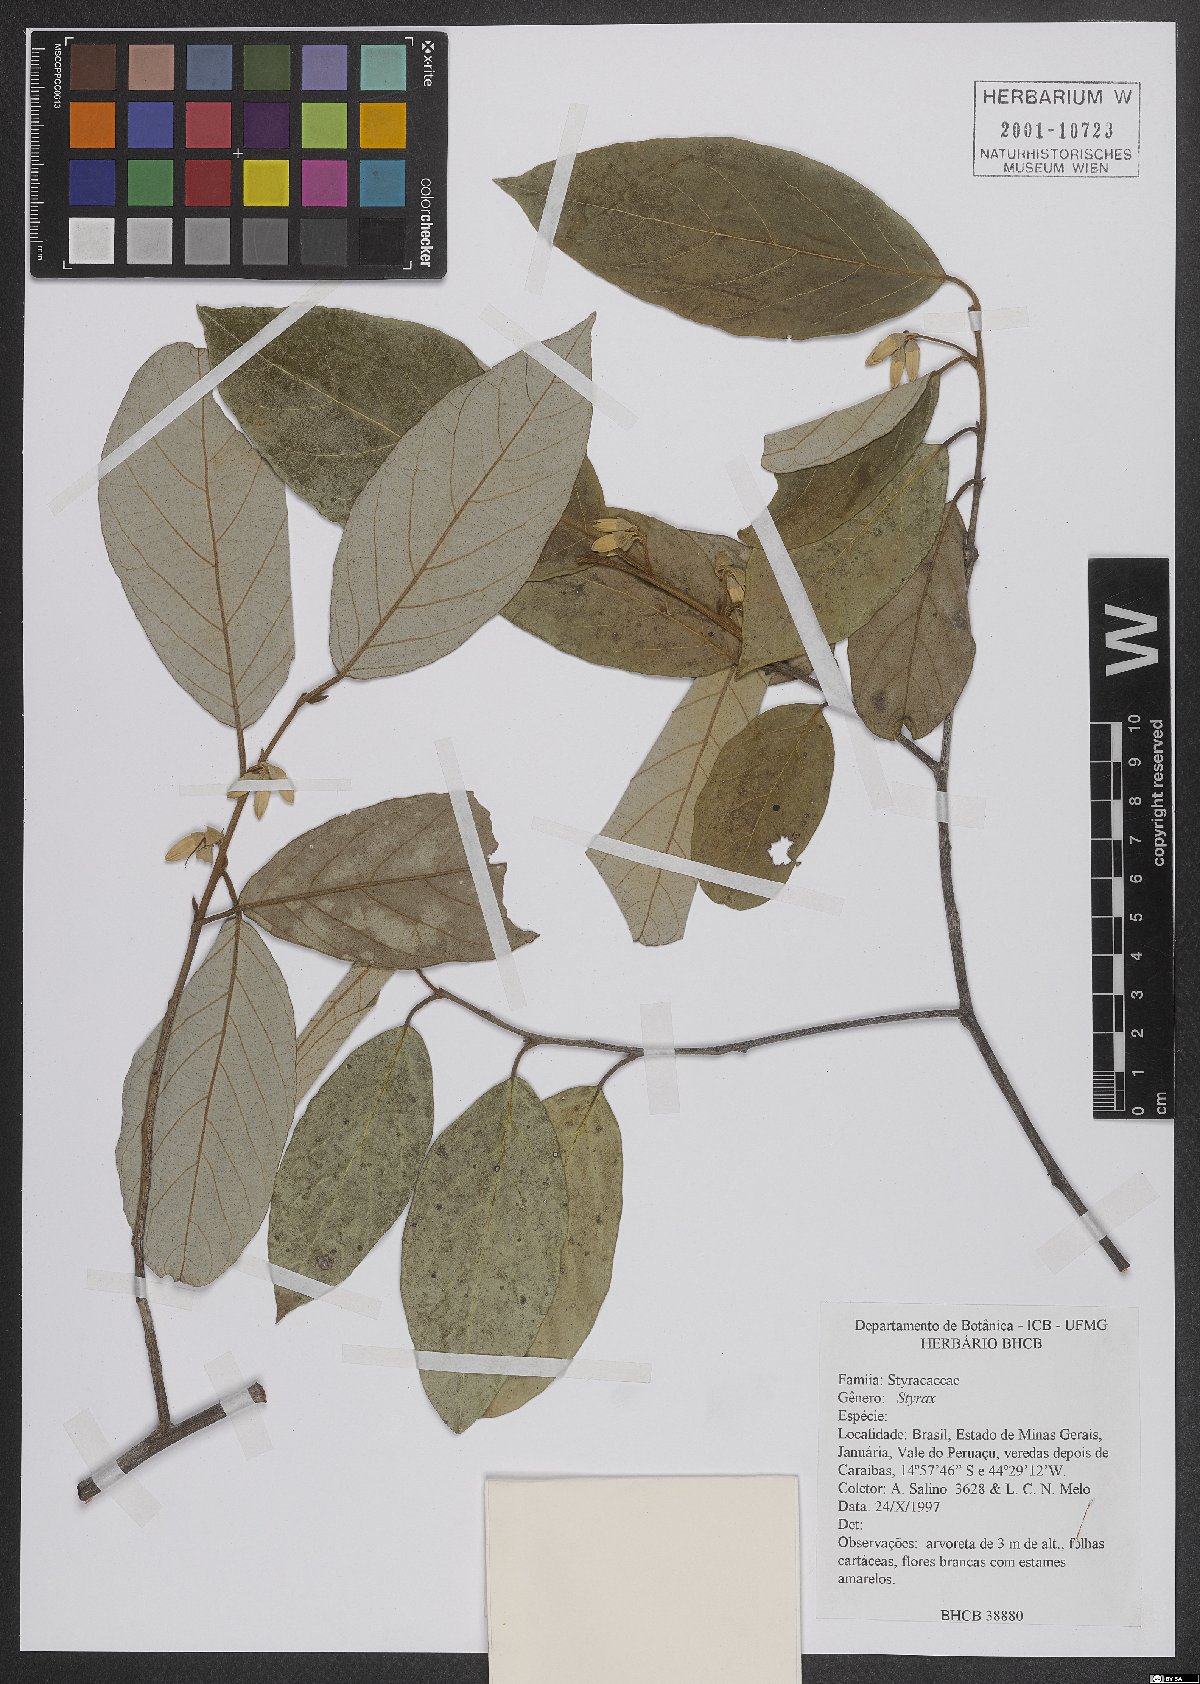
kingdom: Plantae
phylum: Tracheophyta
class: Magnoliopsida
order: Ericales
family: Styracaceae
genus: Styrax
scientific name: Styrax
